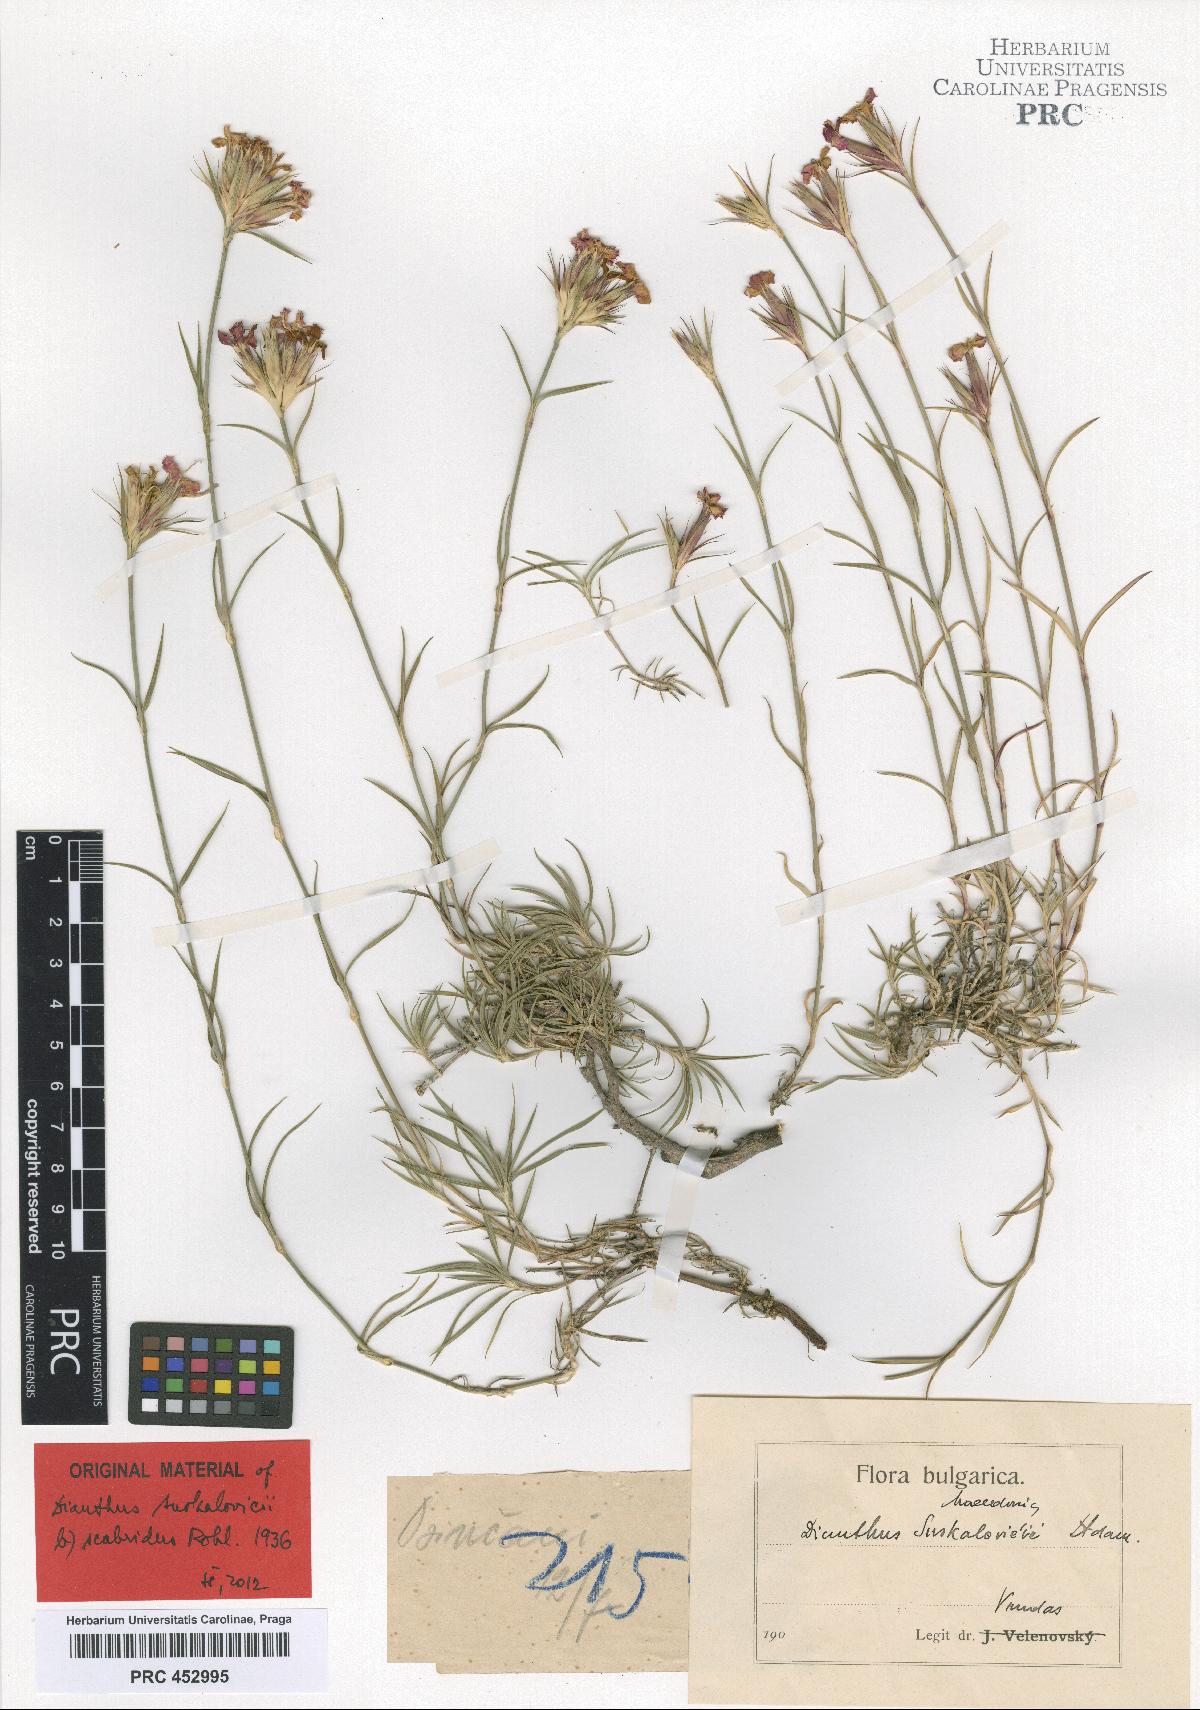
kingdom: Plantae
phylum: Tracheophyta
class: Magnoliopsida
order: Caryophyllales
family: Caryophyllaceae
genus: Dianthus
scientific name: Dianthus gracilis
